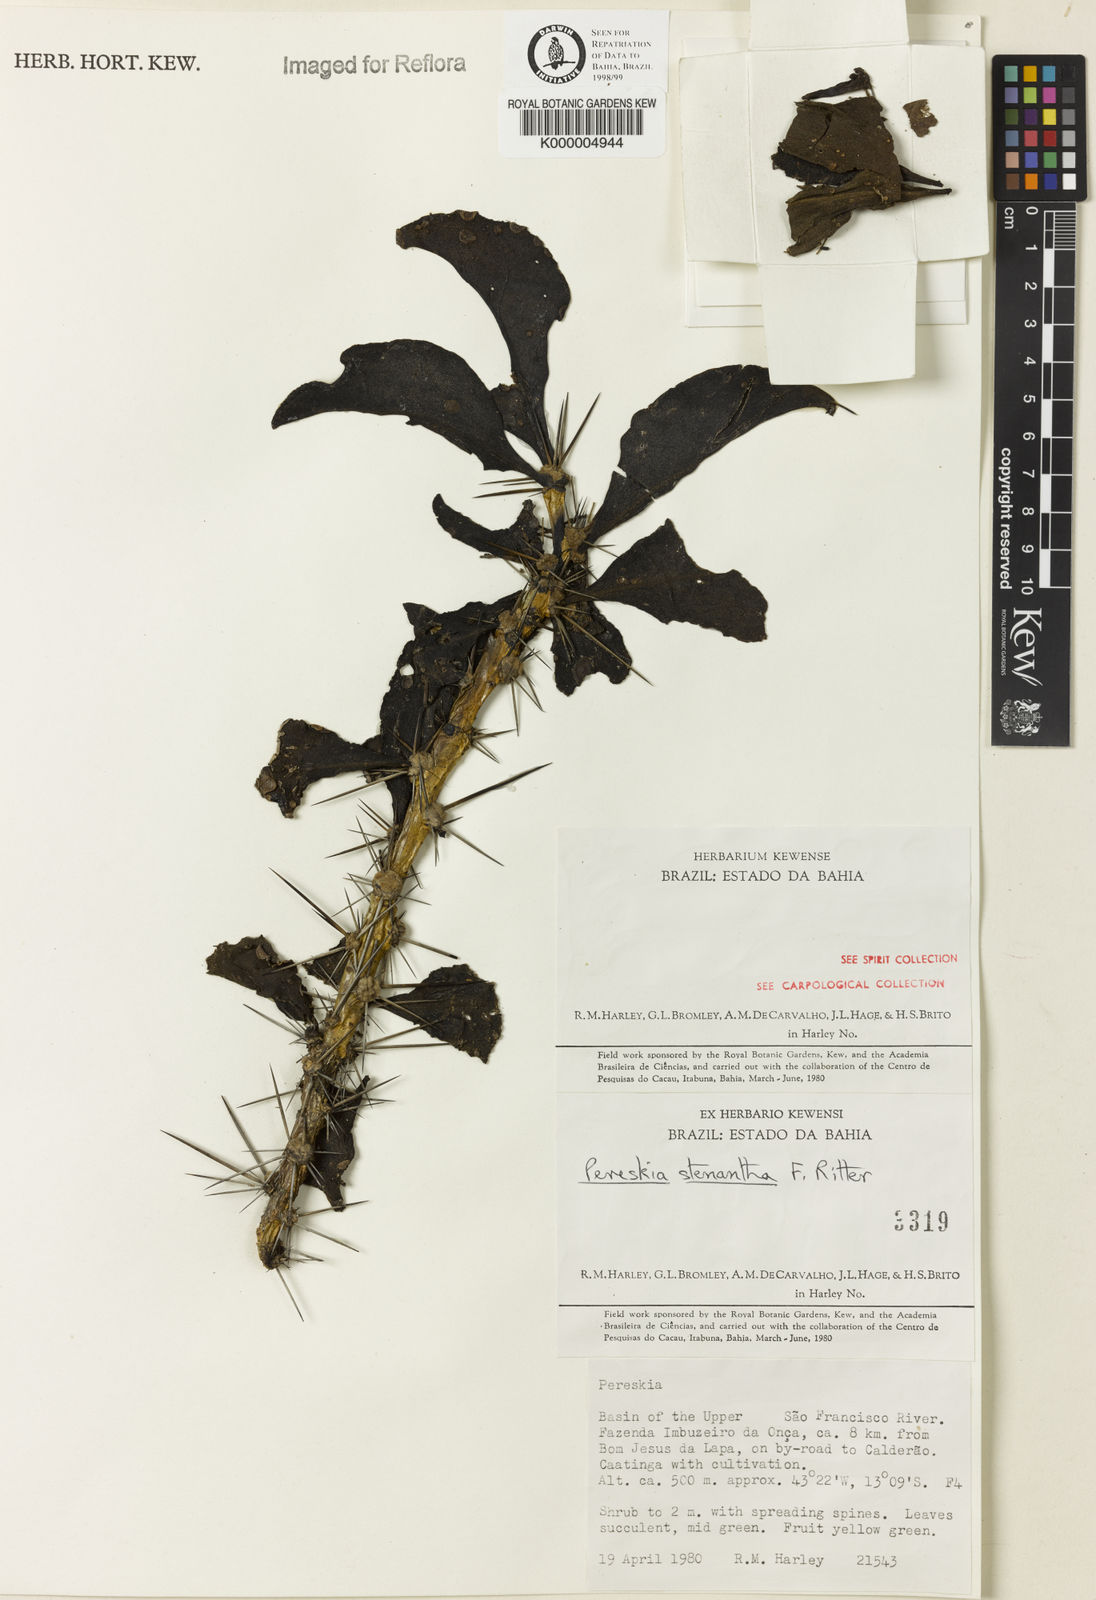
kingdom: Plantae
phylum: Tracheophyta
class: Magnoliopsida
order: Caryophyllales
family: Cactaceae
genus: Pereskia
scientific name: Pereskia stenantha
